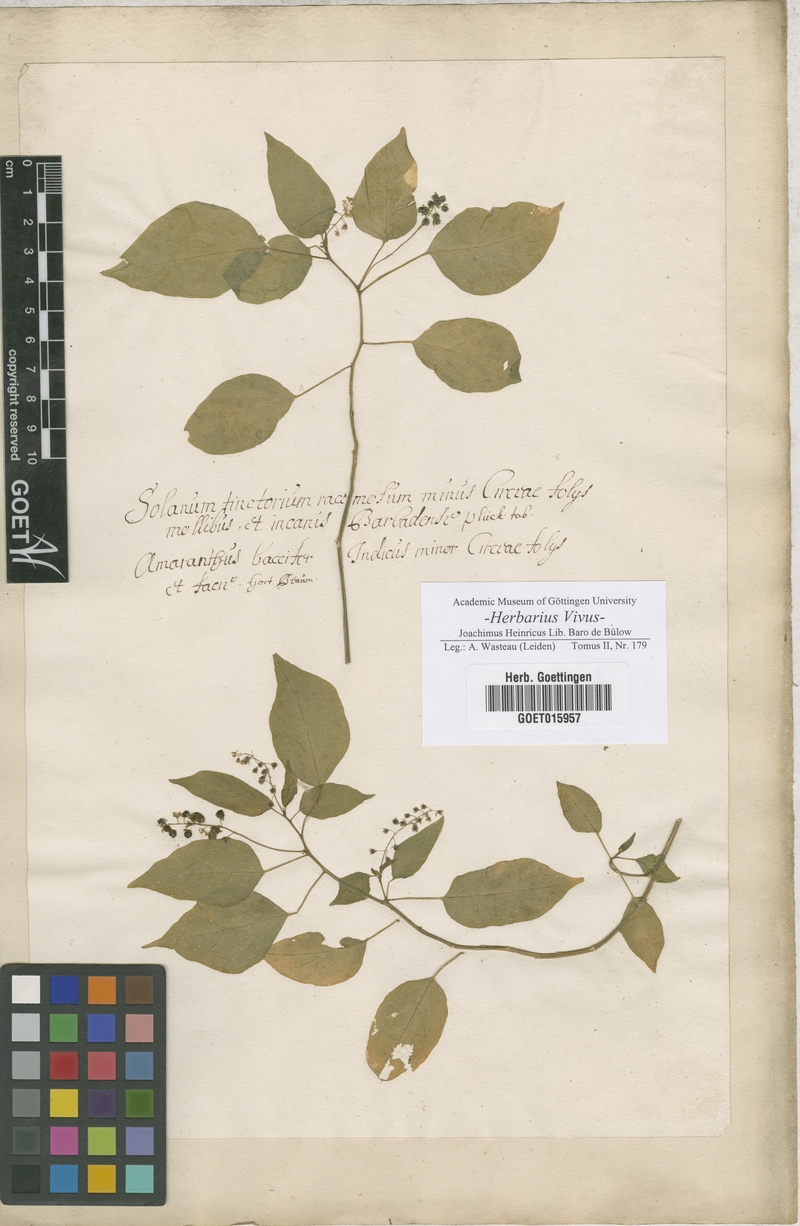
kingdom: Plantae
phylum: Tracheophyta
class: Magnoliopsida
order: Solanales
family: Solanaceae
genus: Solanum
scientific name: Solanum
